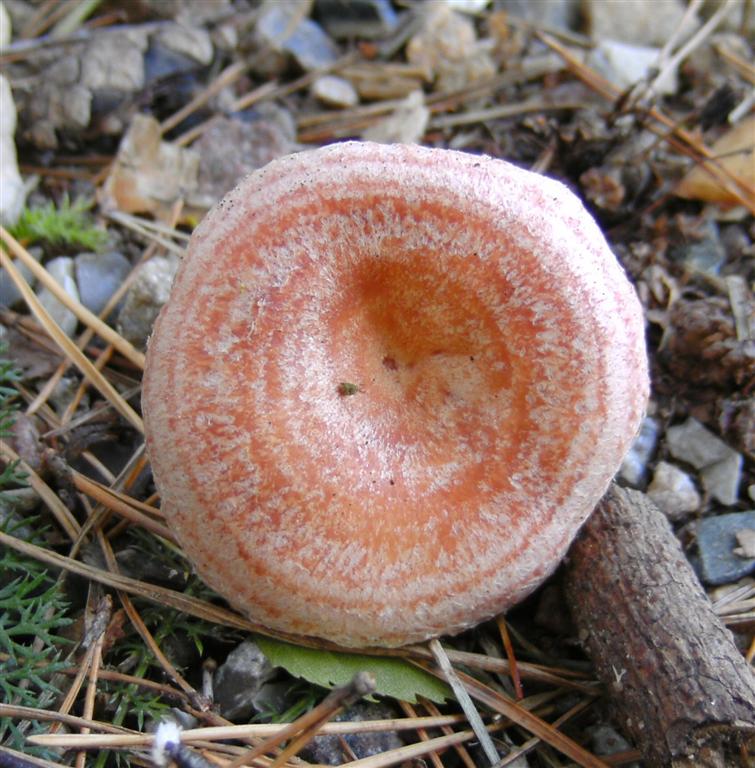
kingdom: Fungi
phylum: Basidiomycota
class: Agaricomycetes
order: Russulales
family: Russulaceae
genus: Lactarius
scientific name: Lactarius torminosus
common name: skægget mælkehat
